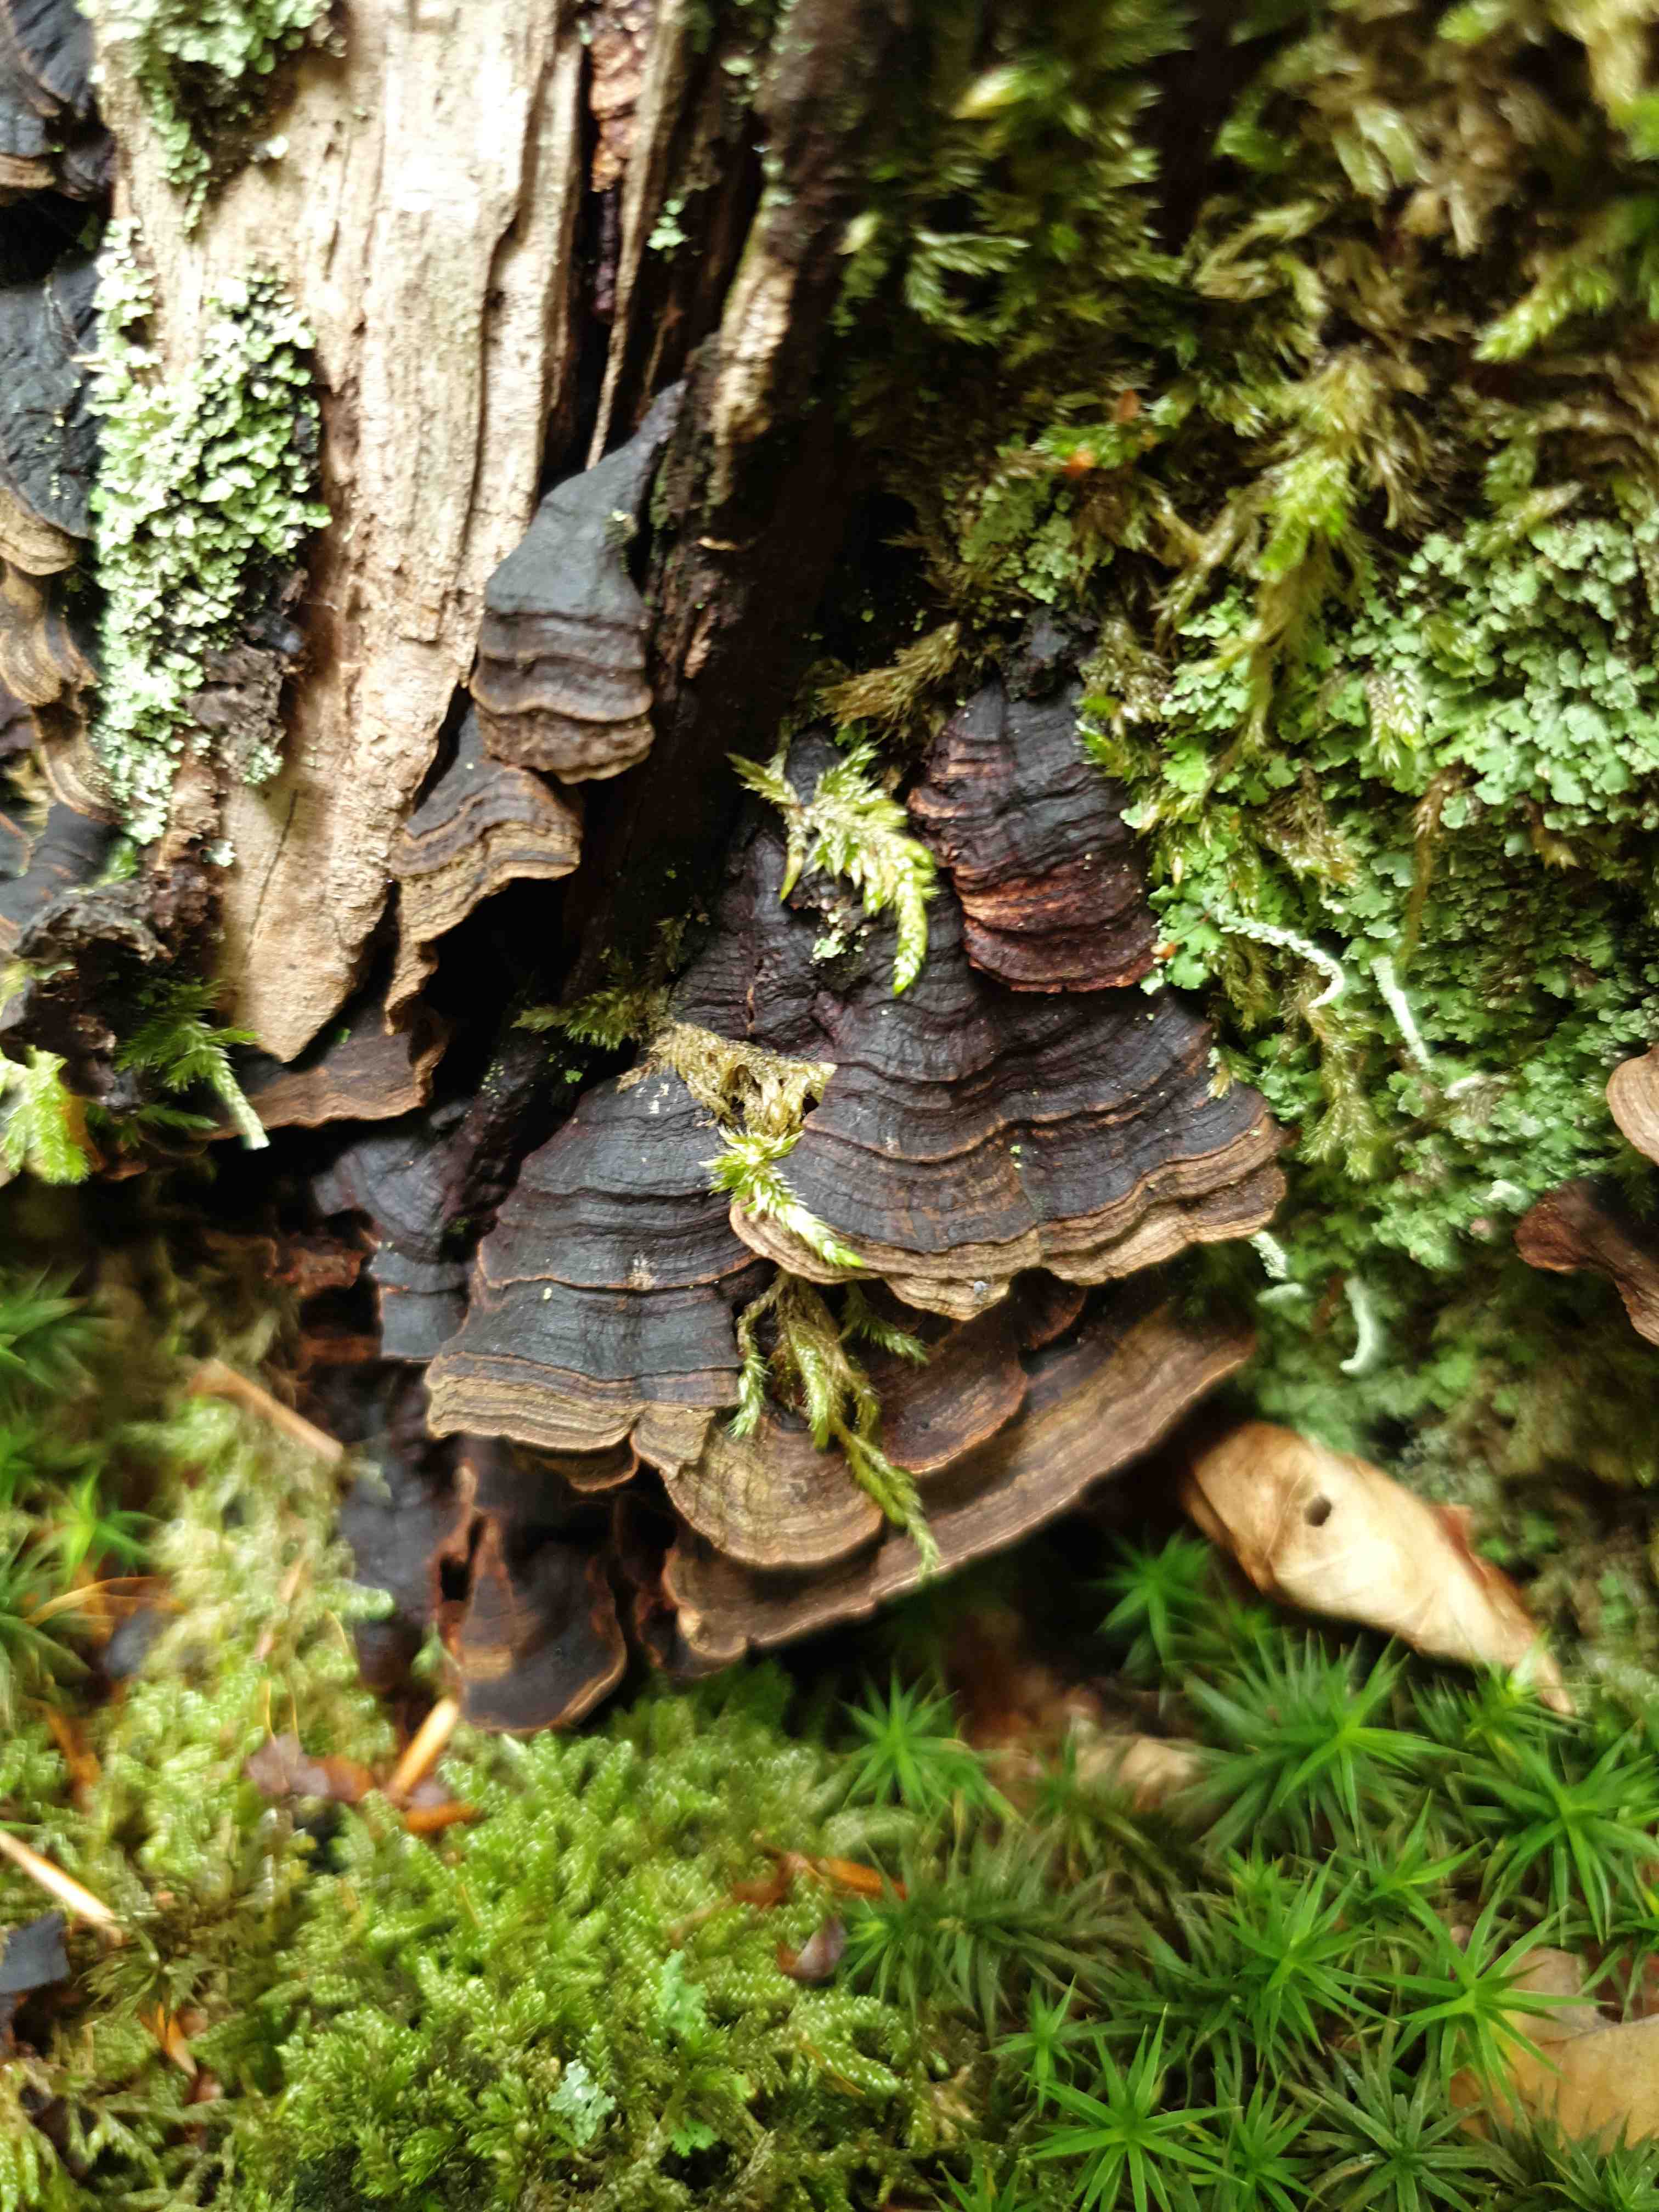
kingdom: Fungi
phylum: Basidiomycota
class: Agaricomycetes
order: Hymenochaetales
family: Hymenochaetaceae
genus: Hymenochaete
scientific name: Hymenochaete rubiginosa
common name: stiv ruslædersvamp
